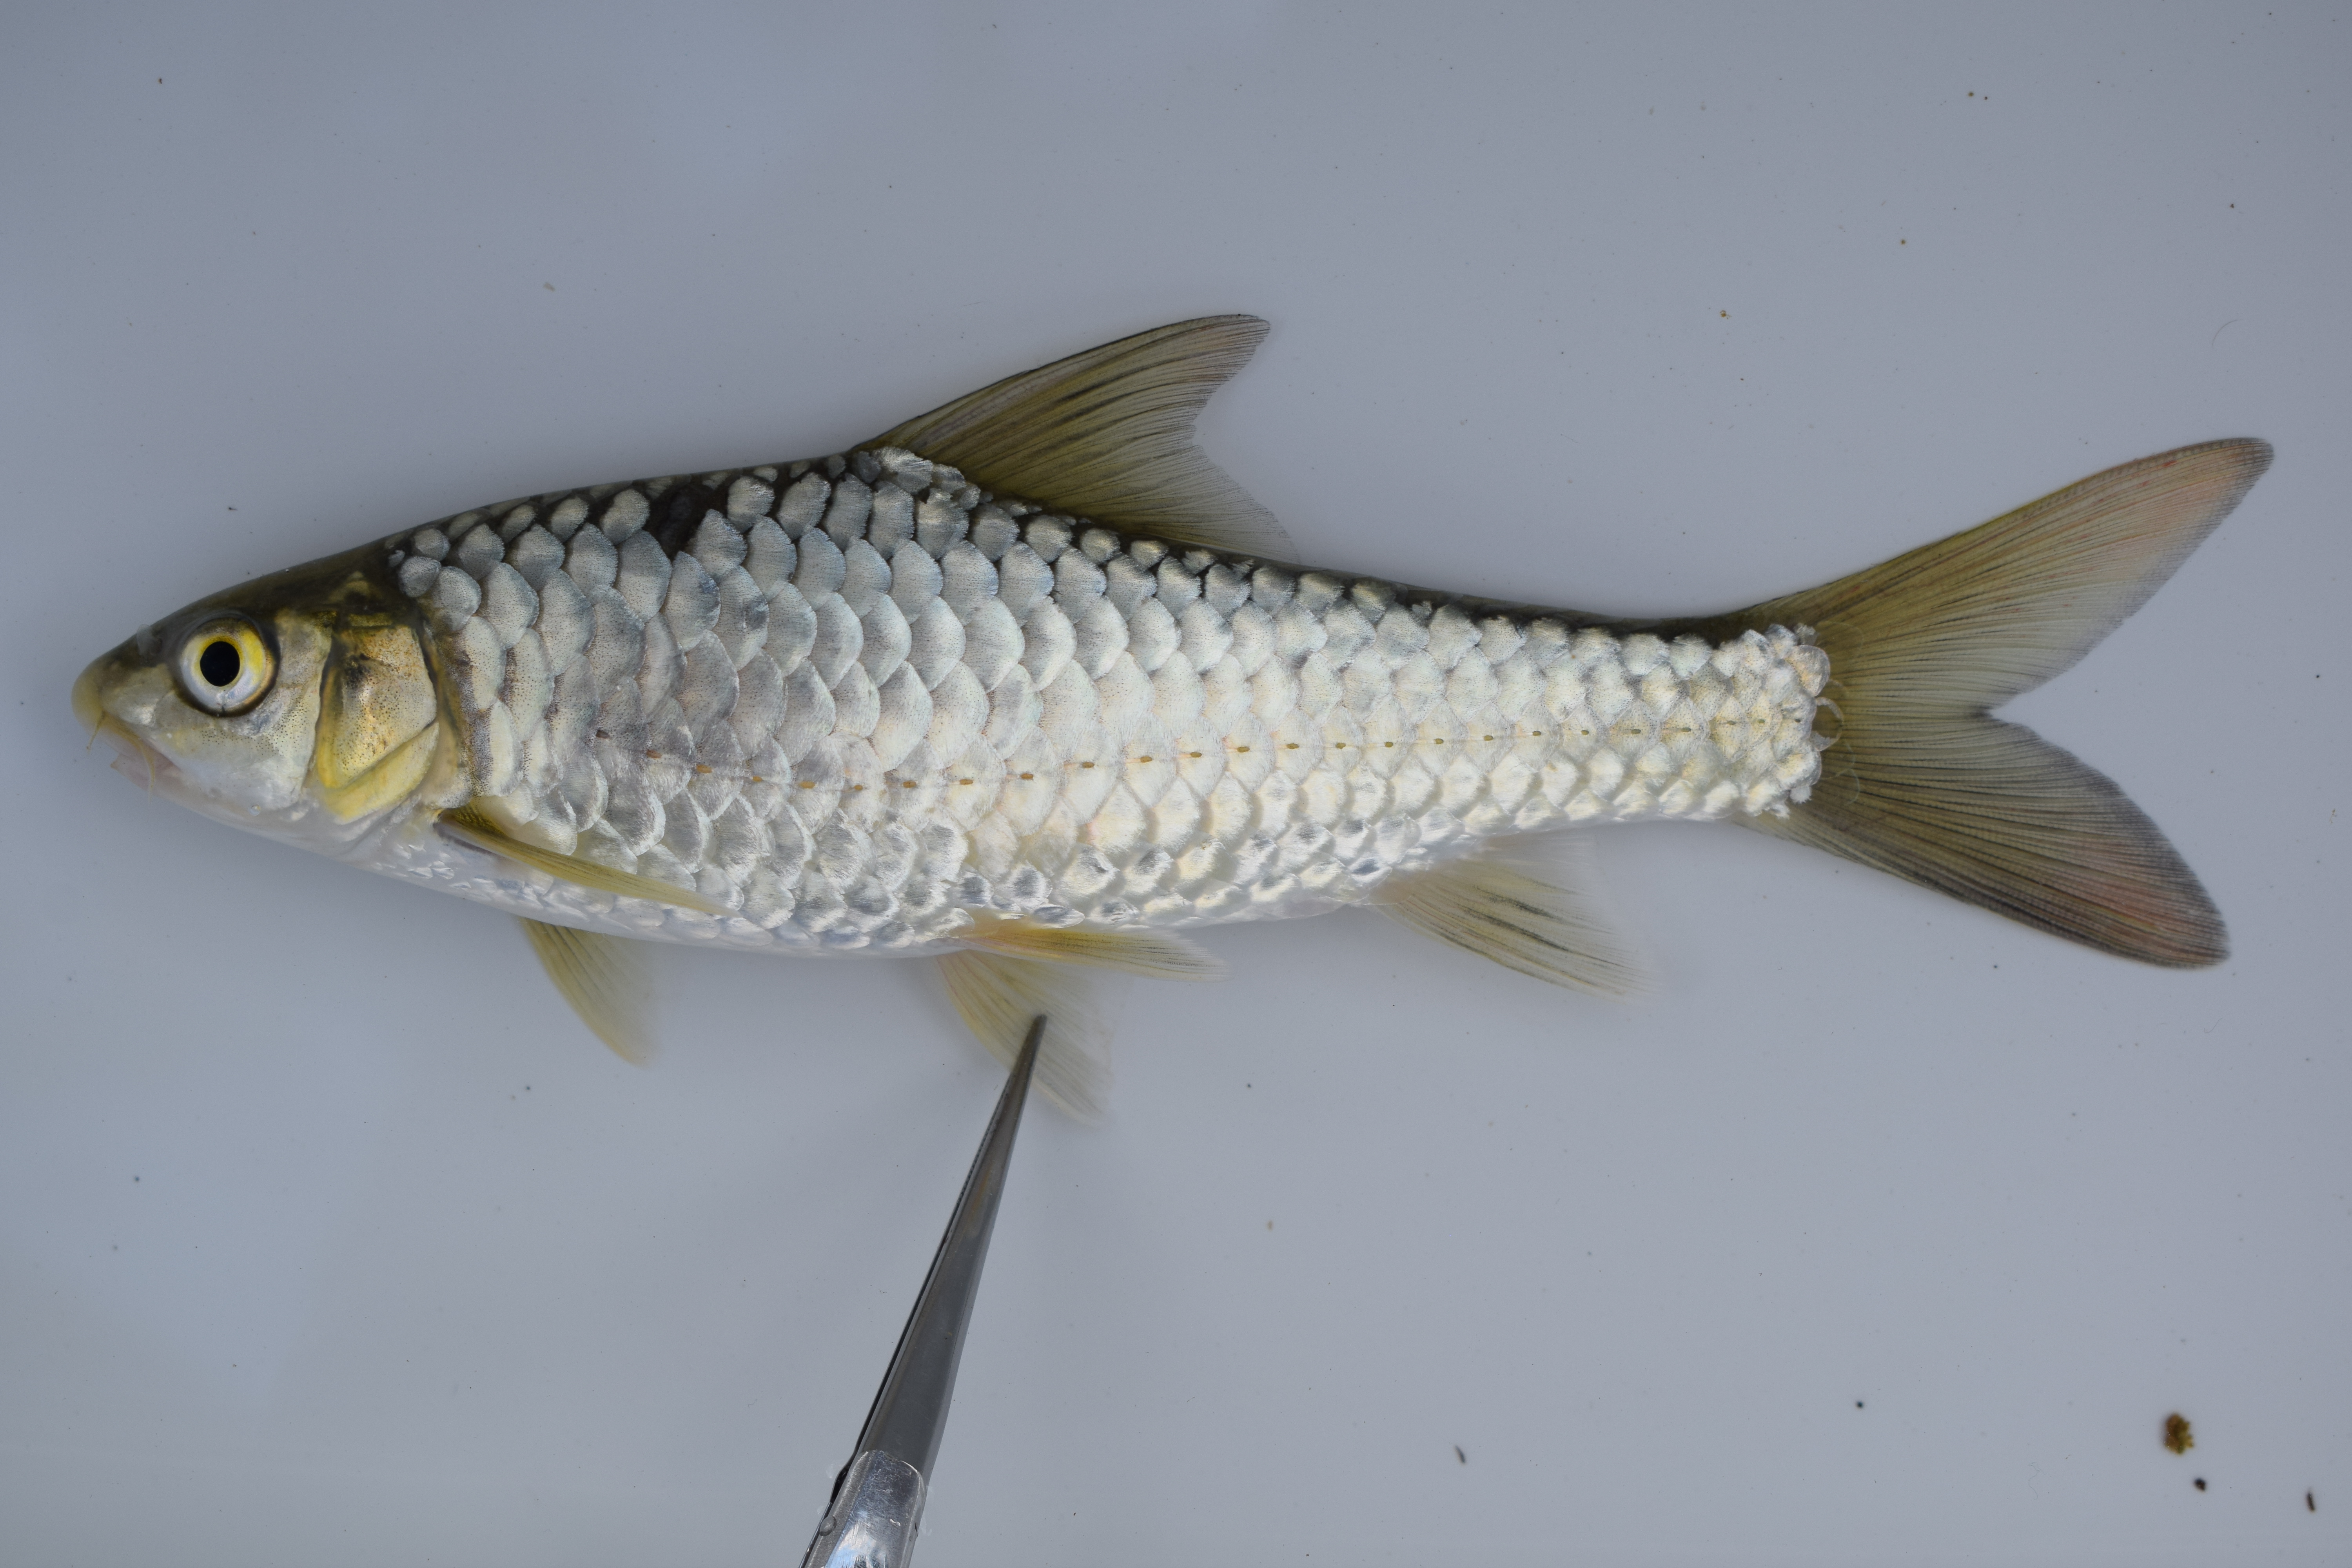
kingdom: Animalia
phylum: Chordata
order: Cypriniformes
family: Cyprinidae
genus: Labeobarbus
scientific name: Labeobarbus marequensis
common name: Largescale yellowfish
